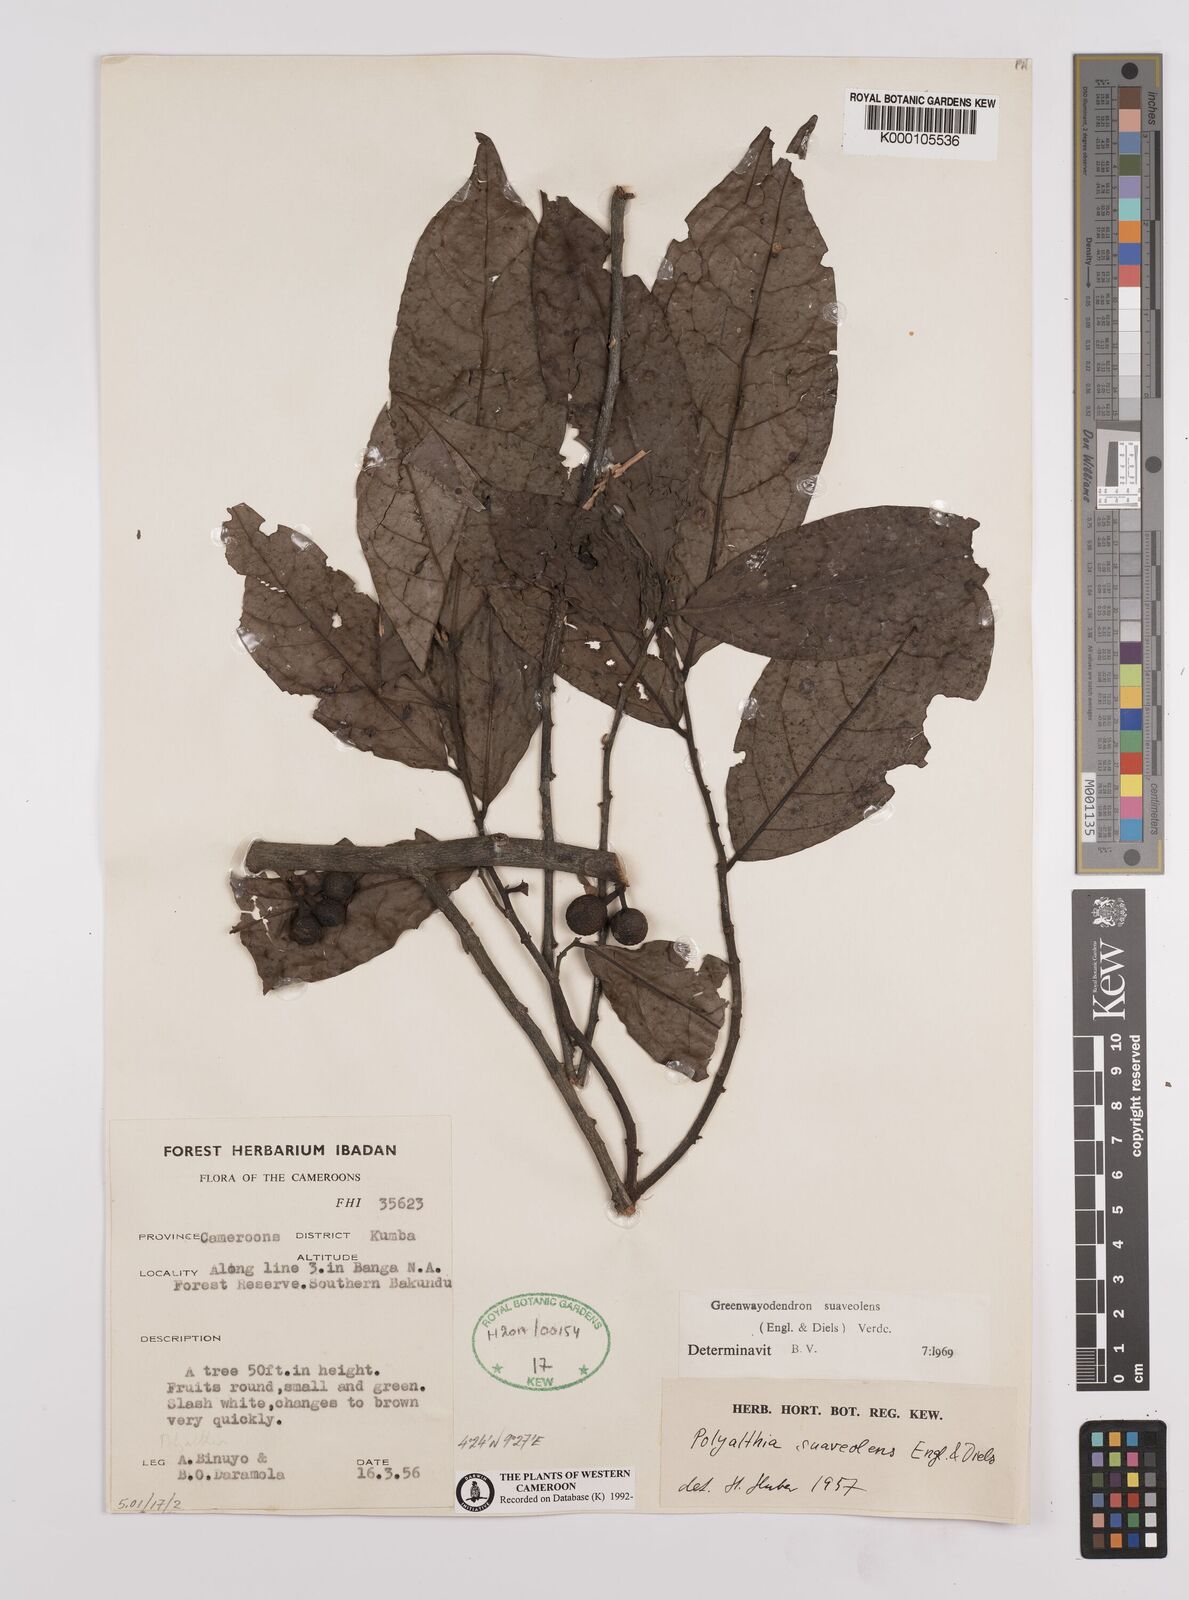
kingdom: Plantae
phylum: Tracheophyta
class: Magnoliopsida
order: Magnoliales
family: Annonaceae
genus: Greenwayodendron
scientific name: Greenwayodendron suaveolens
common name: Molinda
